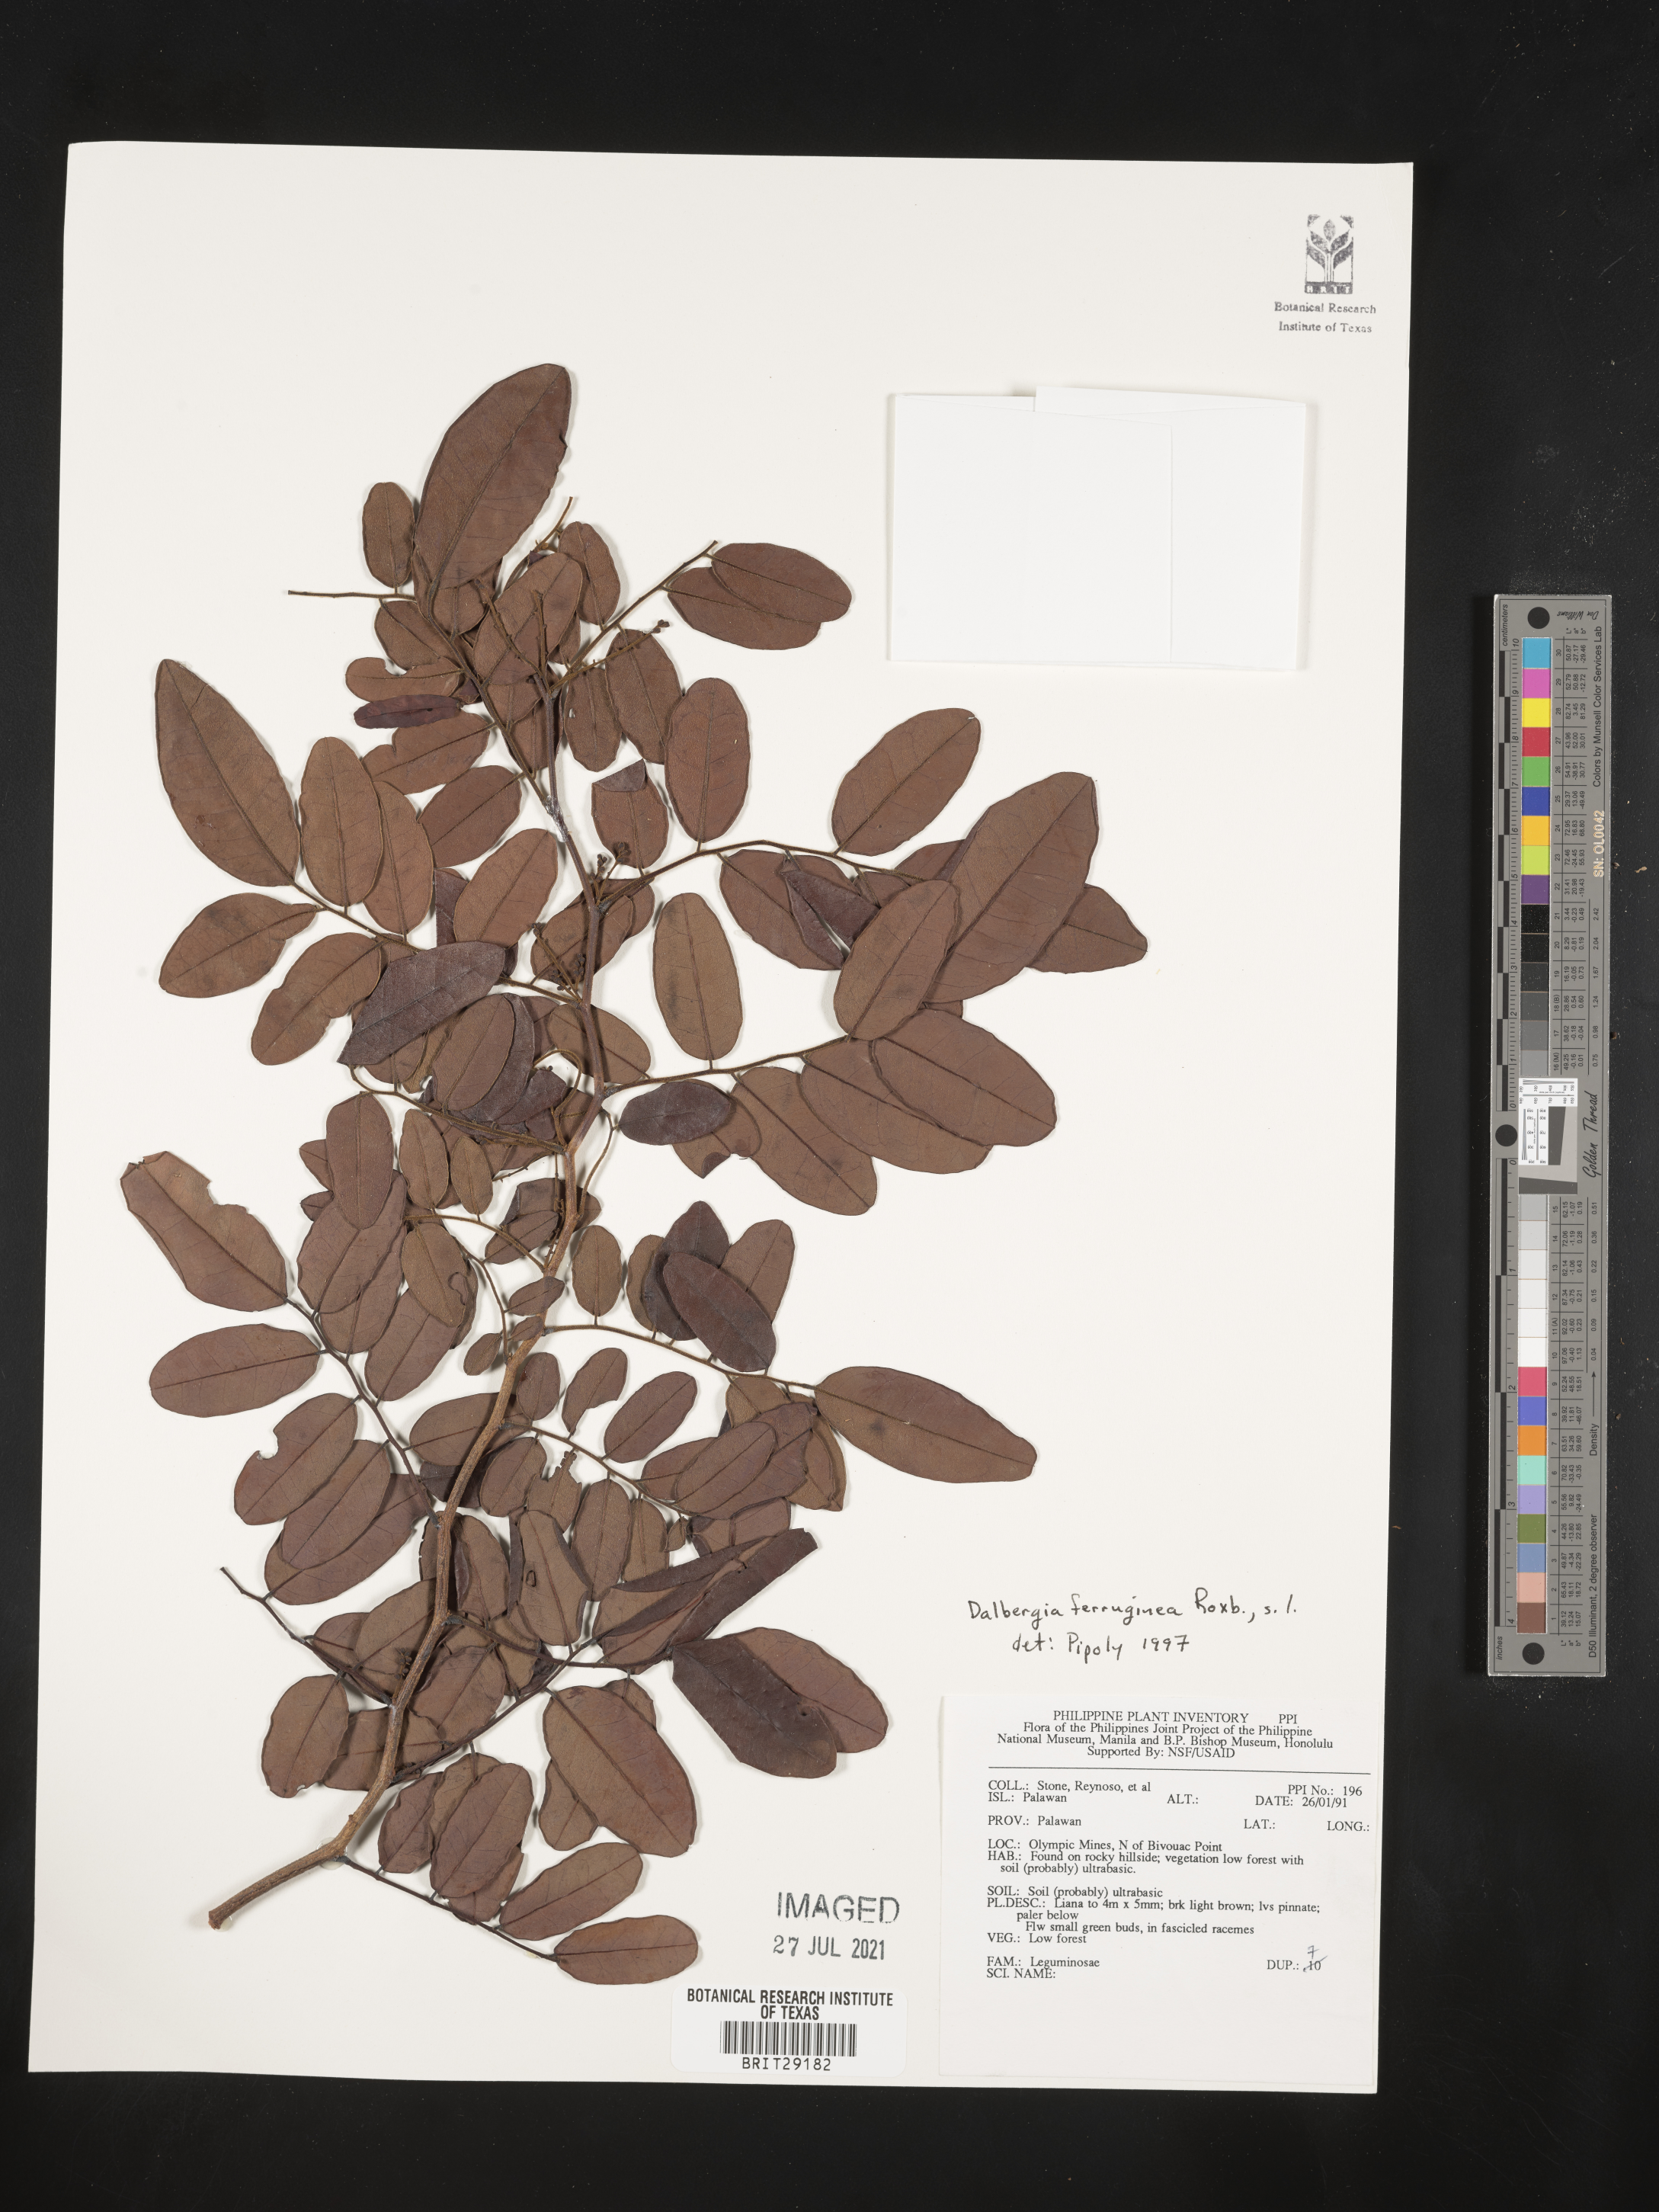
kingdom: Plantae
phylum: Tracheophyta
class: Magnoliopsida
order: Fabales
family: Fabaceae
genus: Dalbergia
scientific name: Dalbergia glaziovii
